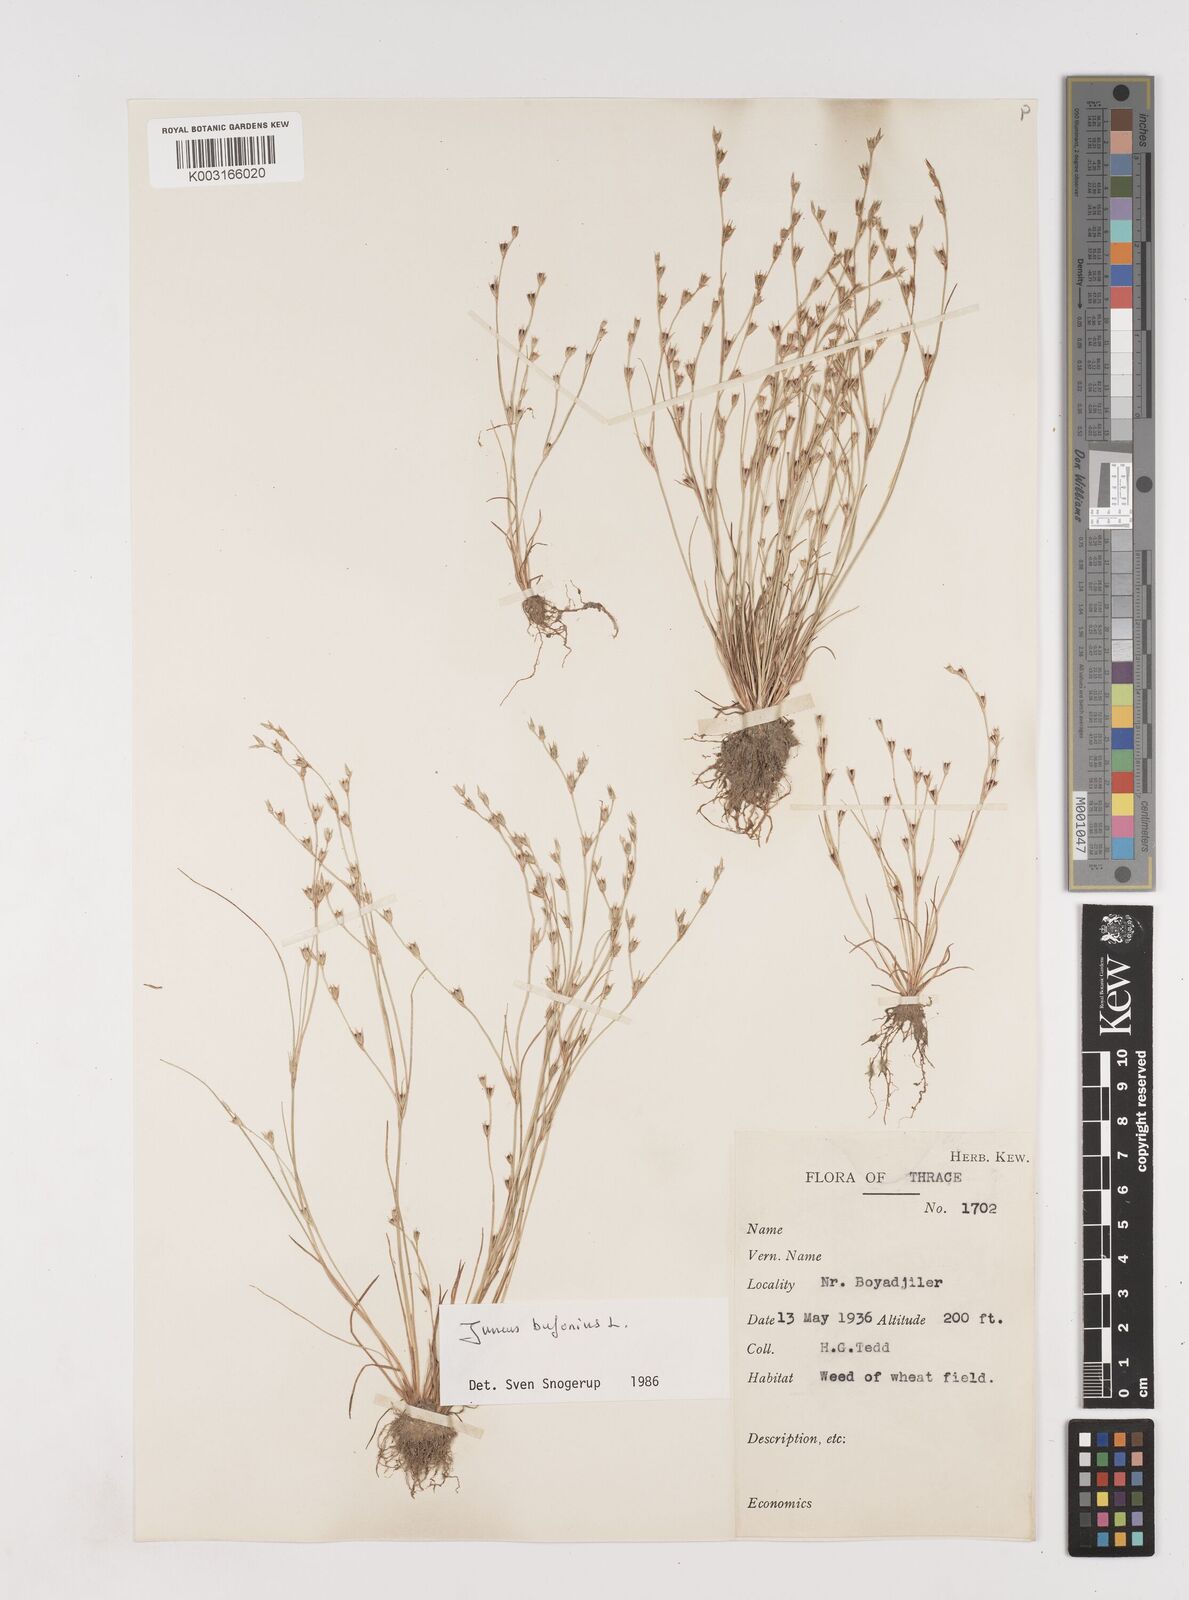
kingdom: Plantae
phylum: Tracheophyta
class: Liliopsida
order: Poales
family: Juncaceae
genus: Juncus
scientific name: Juncus bufonius
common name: Toad rush
